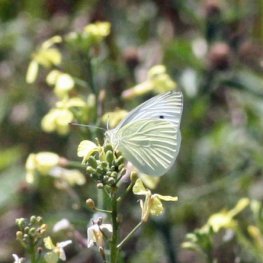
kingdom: Animalia
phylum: Arthropoda
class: Insecta
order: Lepidoptera
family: Pieridae
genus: Pieris
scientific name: Pieris rapae
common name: Cabbage White
